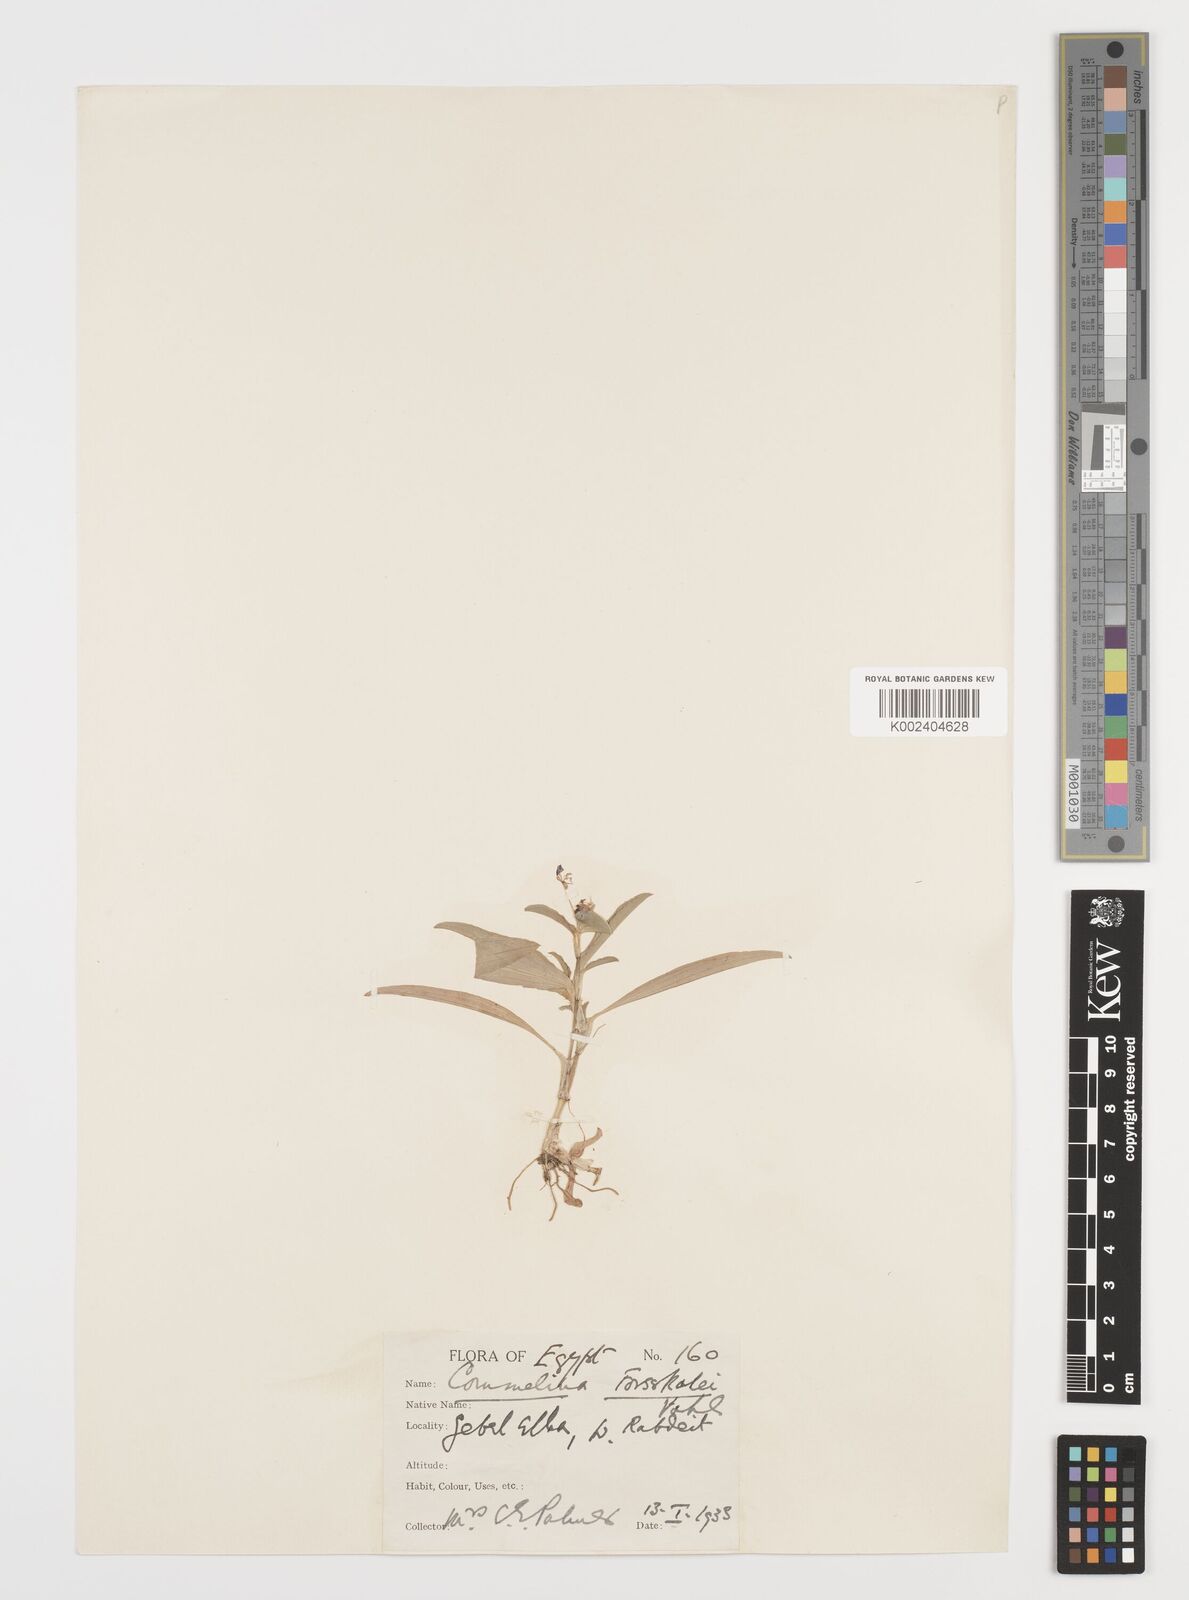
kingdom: Plantae
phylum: Tracheophyta
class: Liliopsida
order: Commelinales
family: Commelinaceae
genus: Commelina
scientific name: Commelina forskaolii
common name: Rat's ear
